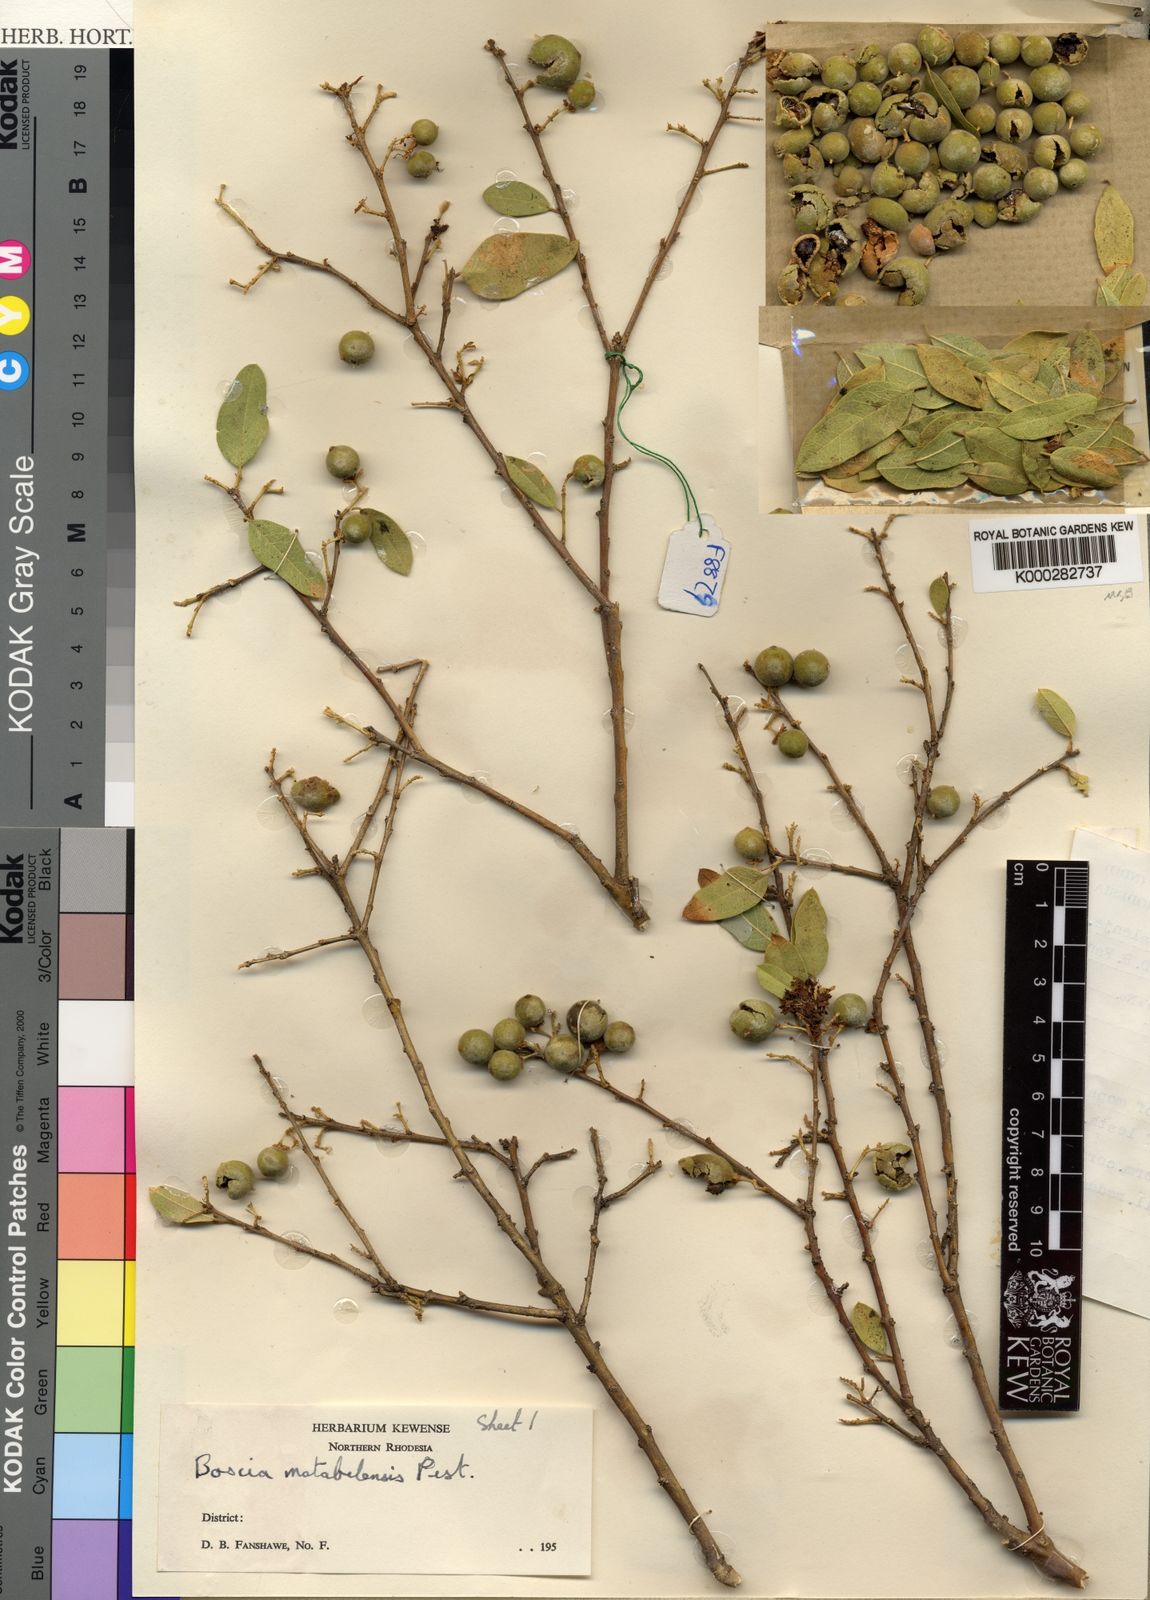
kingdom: Plantae
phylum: Tracheophyta
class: Magnoliopsida
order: Brassicales
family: Capparaceae
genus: Boscia
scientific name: Boscia matabelensis
